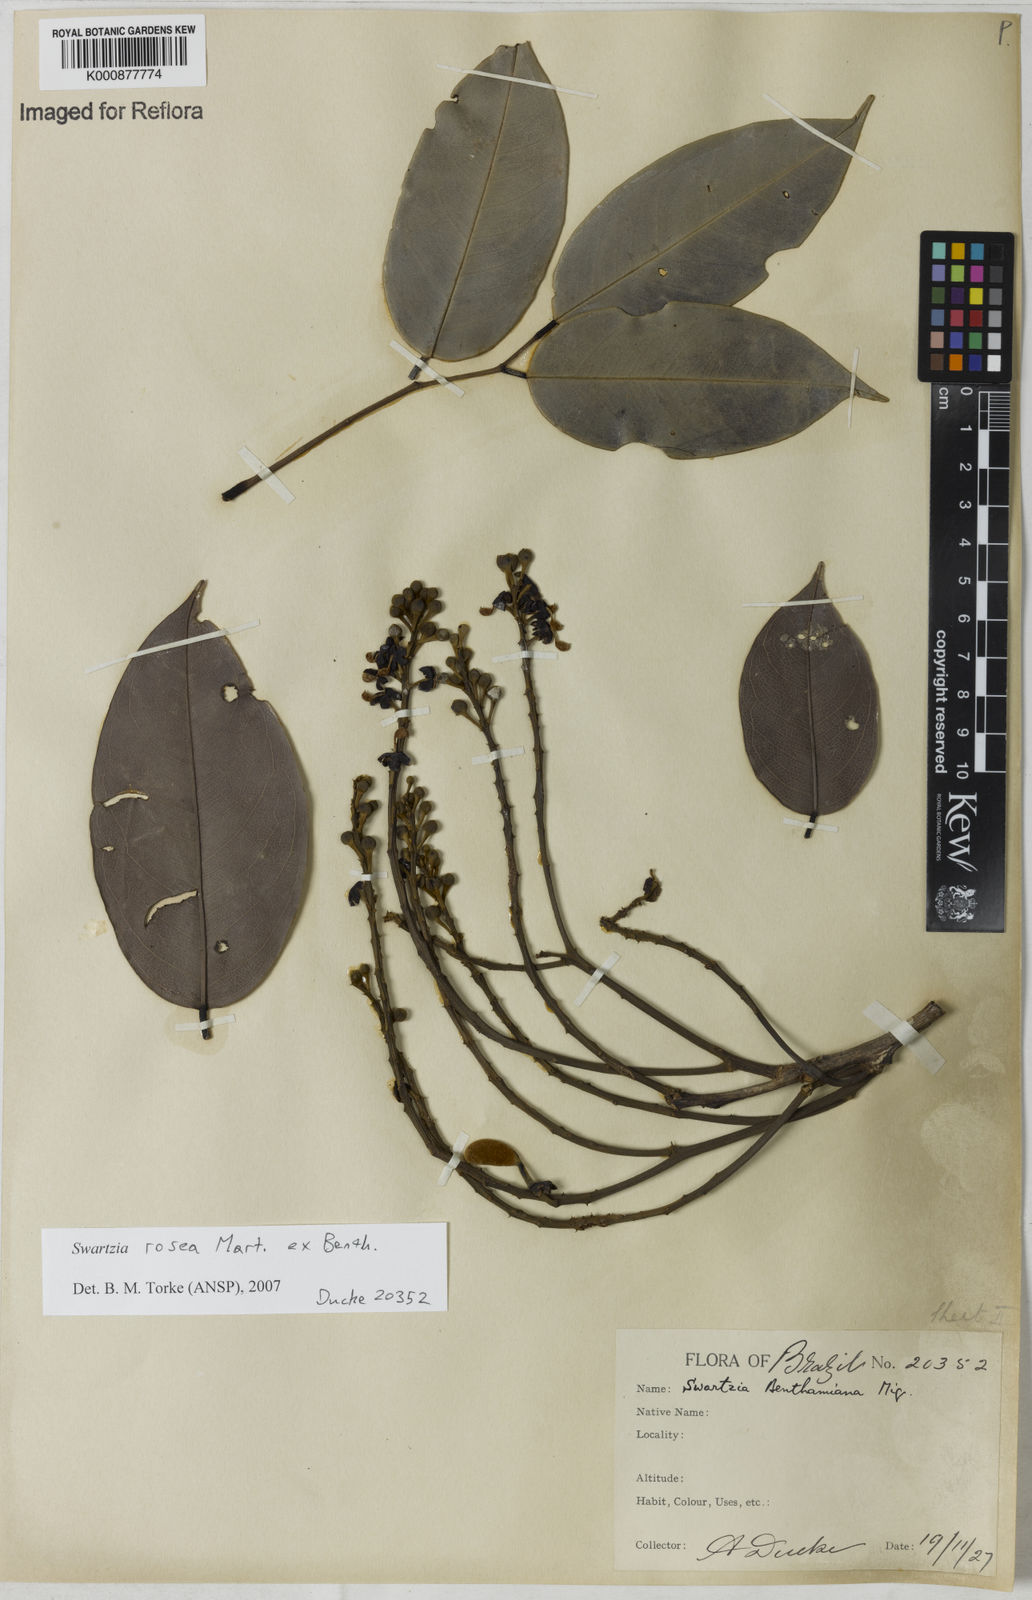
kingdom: Plantae
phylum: Tracheophyta
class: Magnoliopsida
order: Fabales
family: Fabaceae
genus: Swartzia
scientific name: Swartzia rosea
